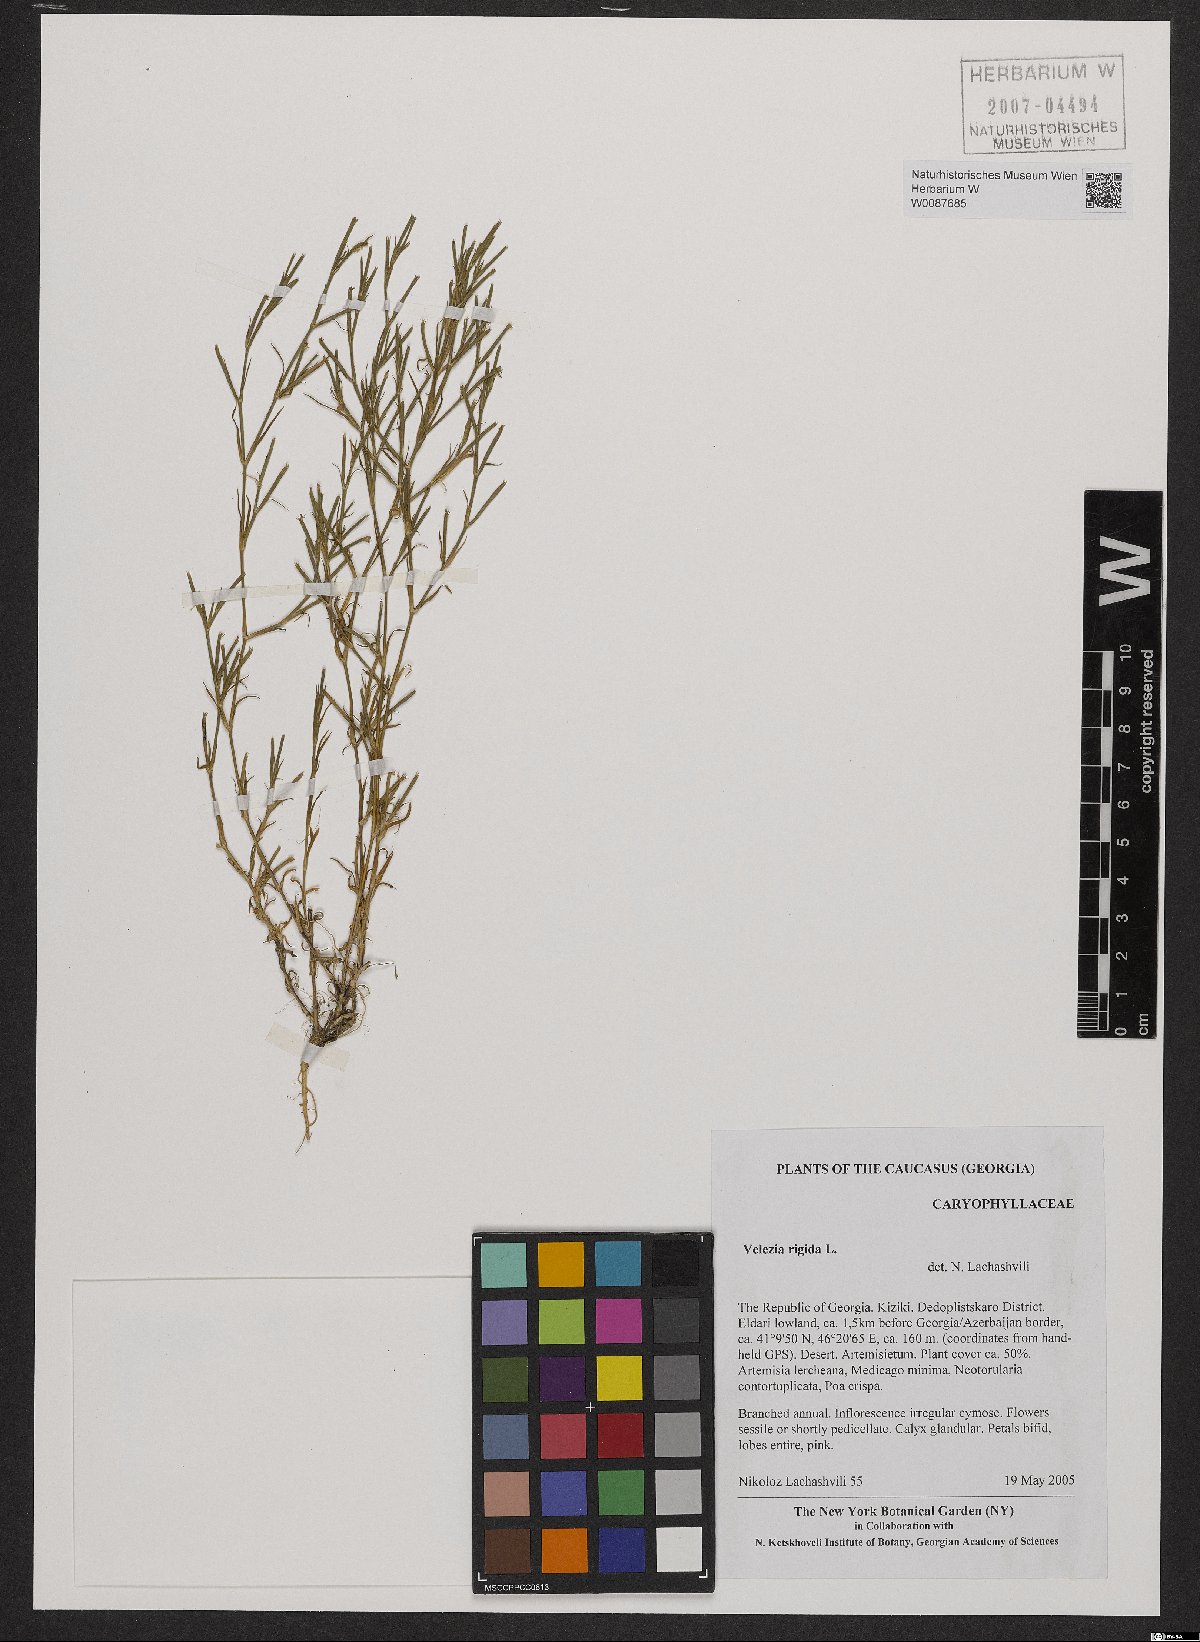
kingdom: Plantae
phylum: Tracheophyta
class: Magnoliopsida
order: Caryophyllales
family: Caryophyllaceae
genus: Dianthus
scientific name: Dianthus nudiflorus
